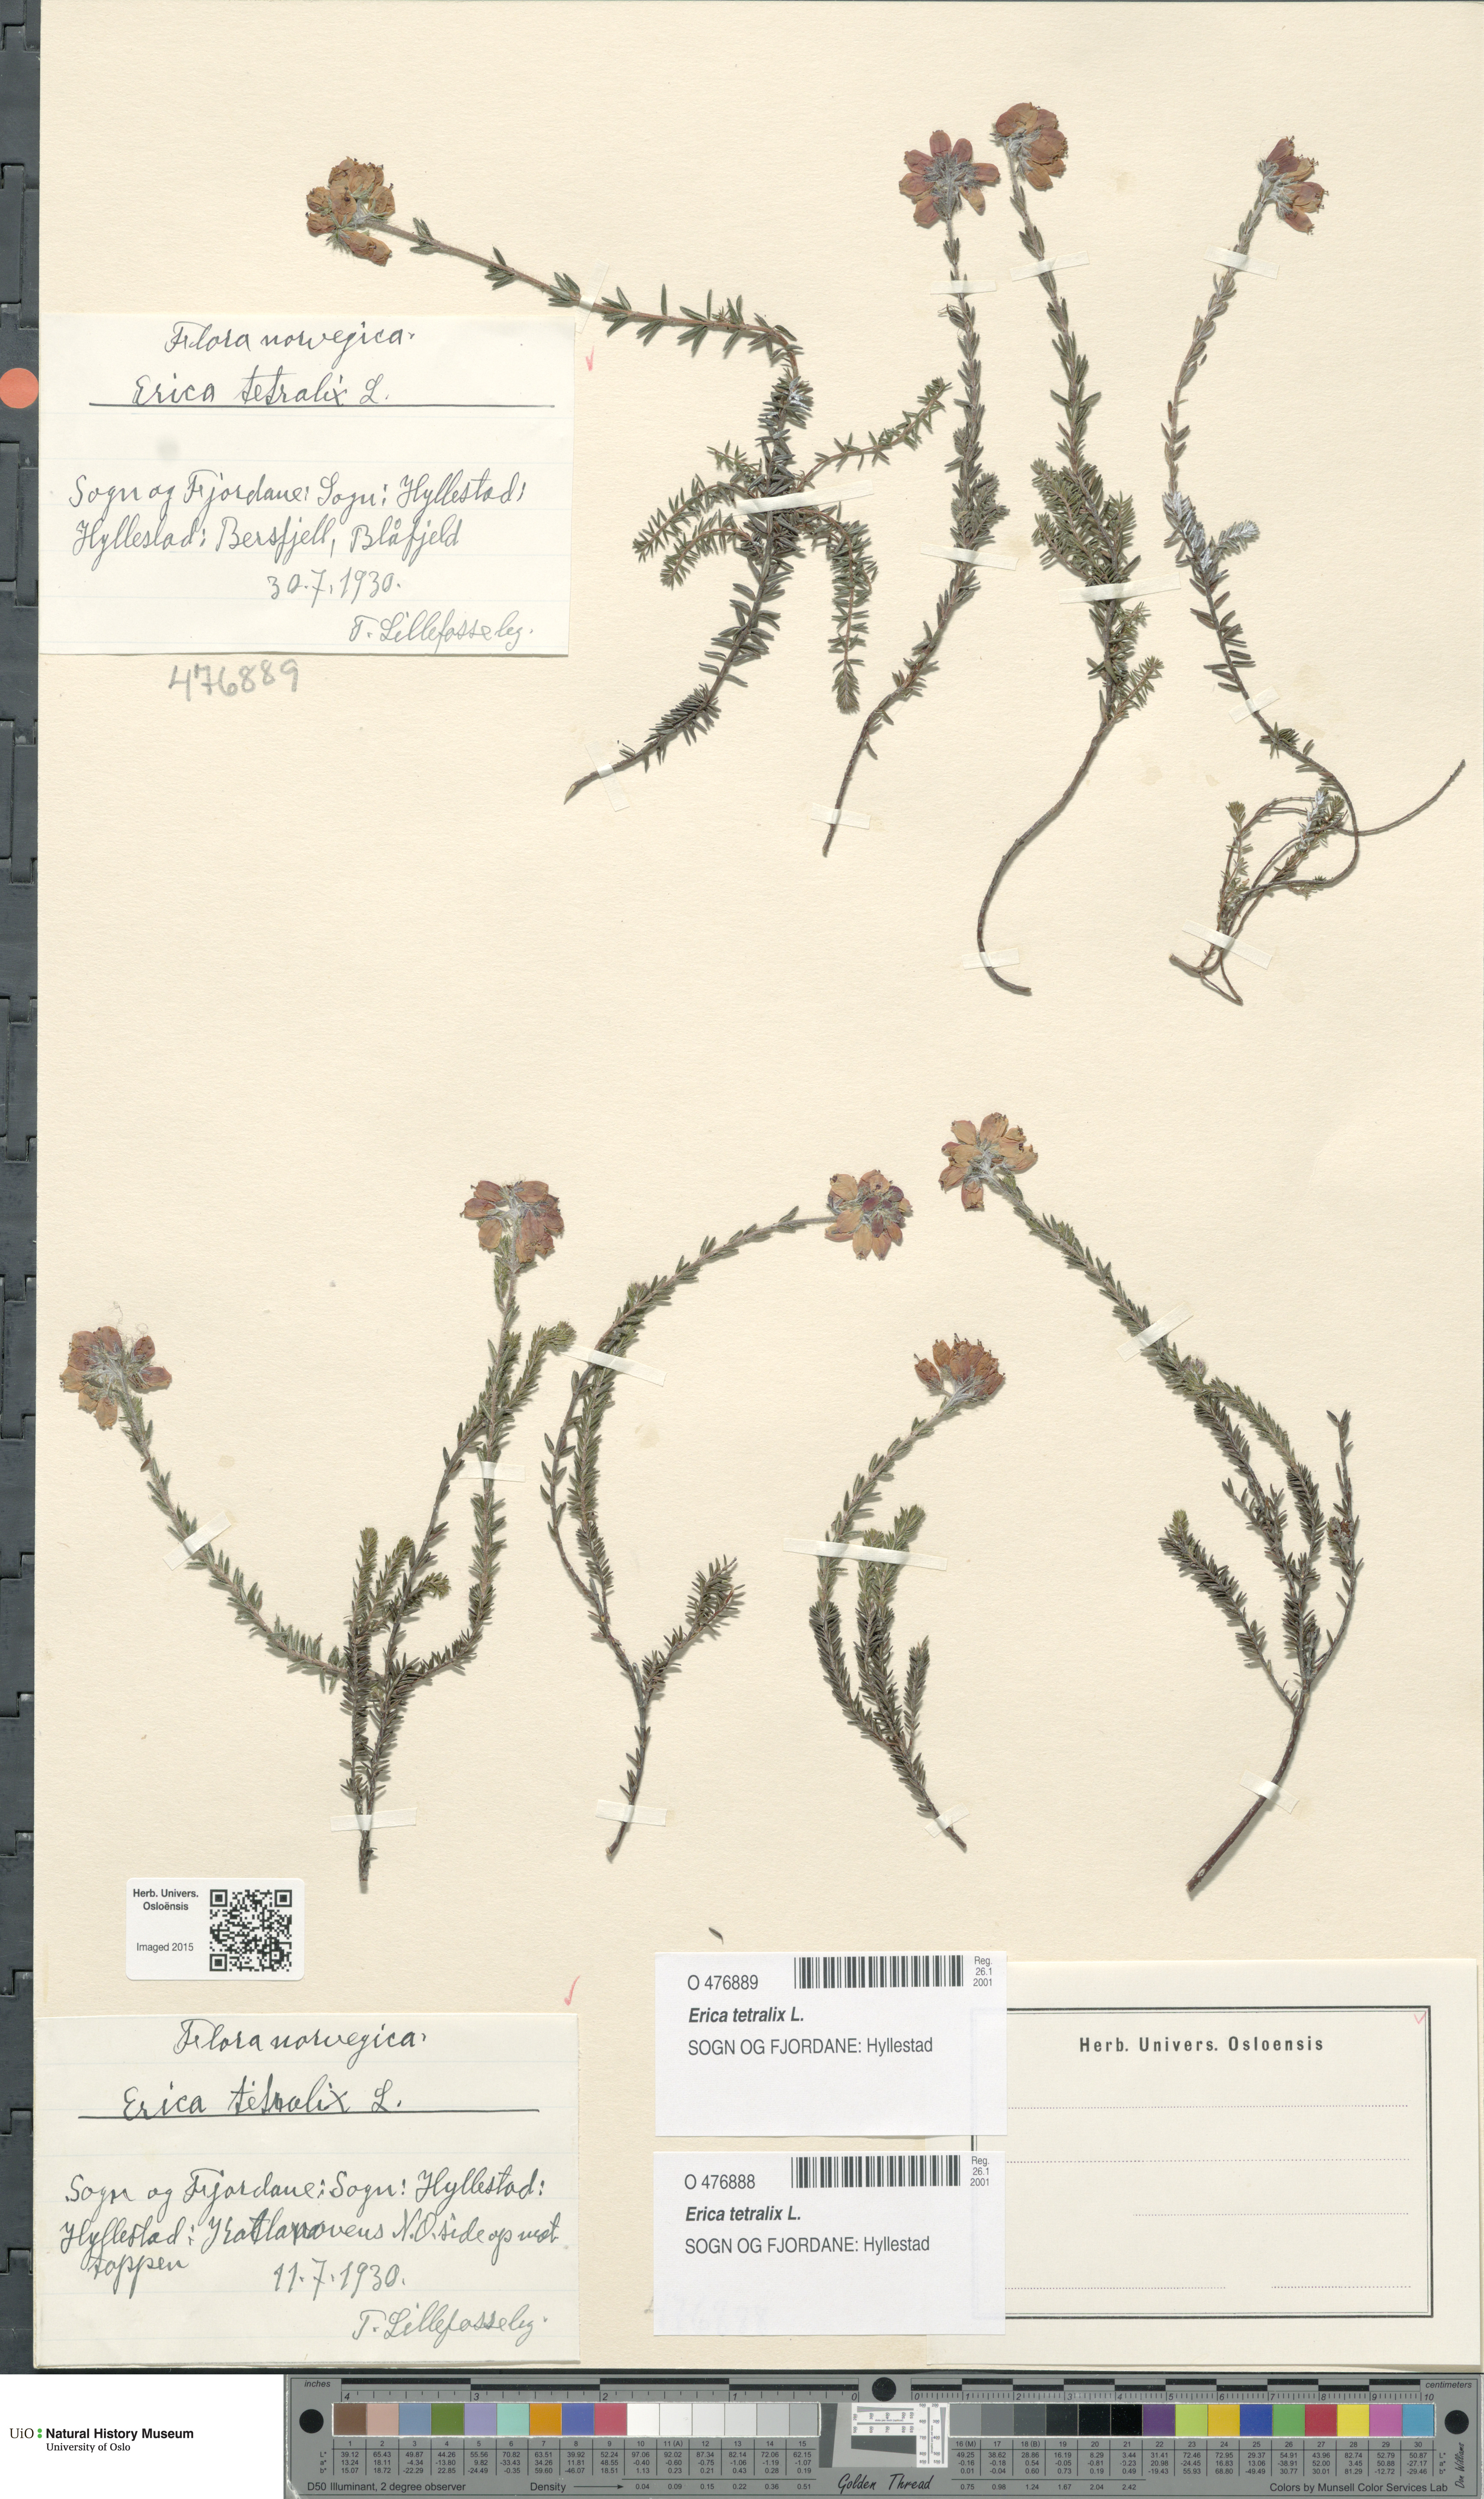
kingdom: Plantae
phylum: Tracheophyta
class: Magnoliopsida
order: Ericales
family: Ericaceae
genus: Erica
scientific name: Erica tetralix
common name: Cross-leaved heath
